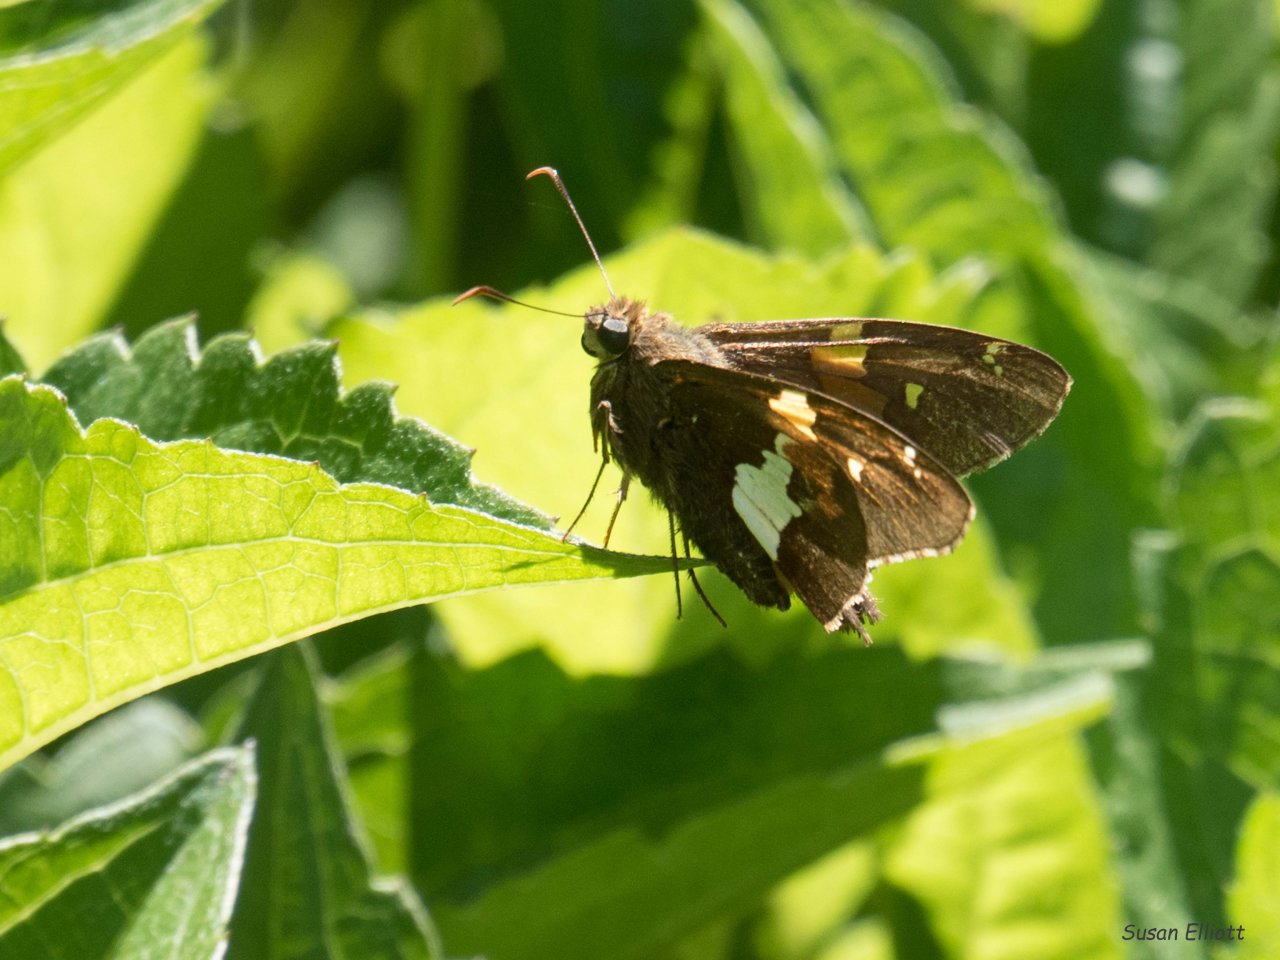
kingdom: Animalia
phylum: Arthropoda
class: Insecta
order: Lepidoptera
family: Hesperiidae
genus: Epargyreus
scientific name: Epargyreus clarus
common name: Silver-spotted Skipper
